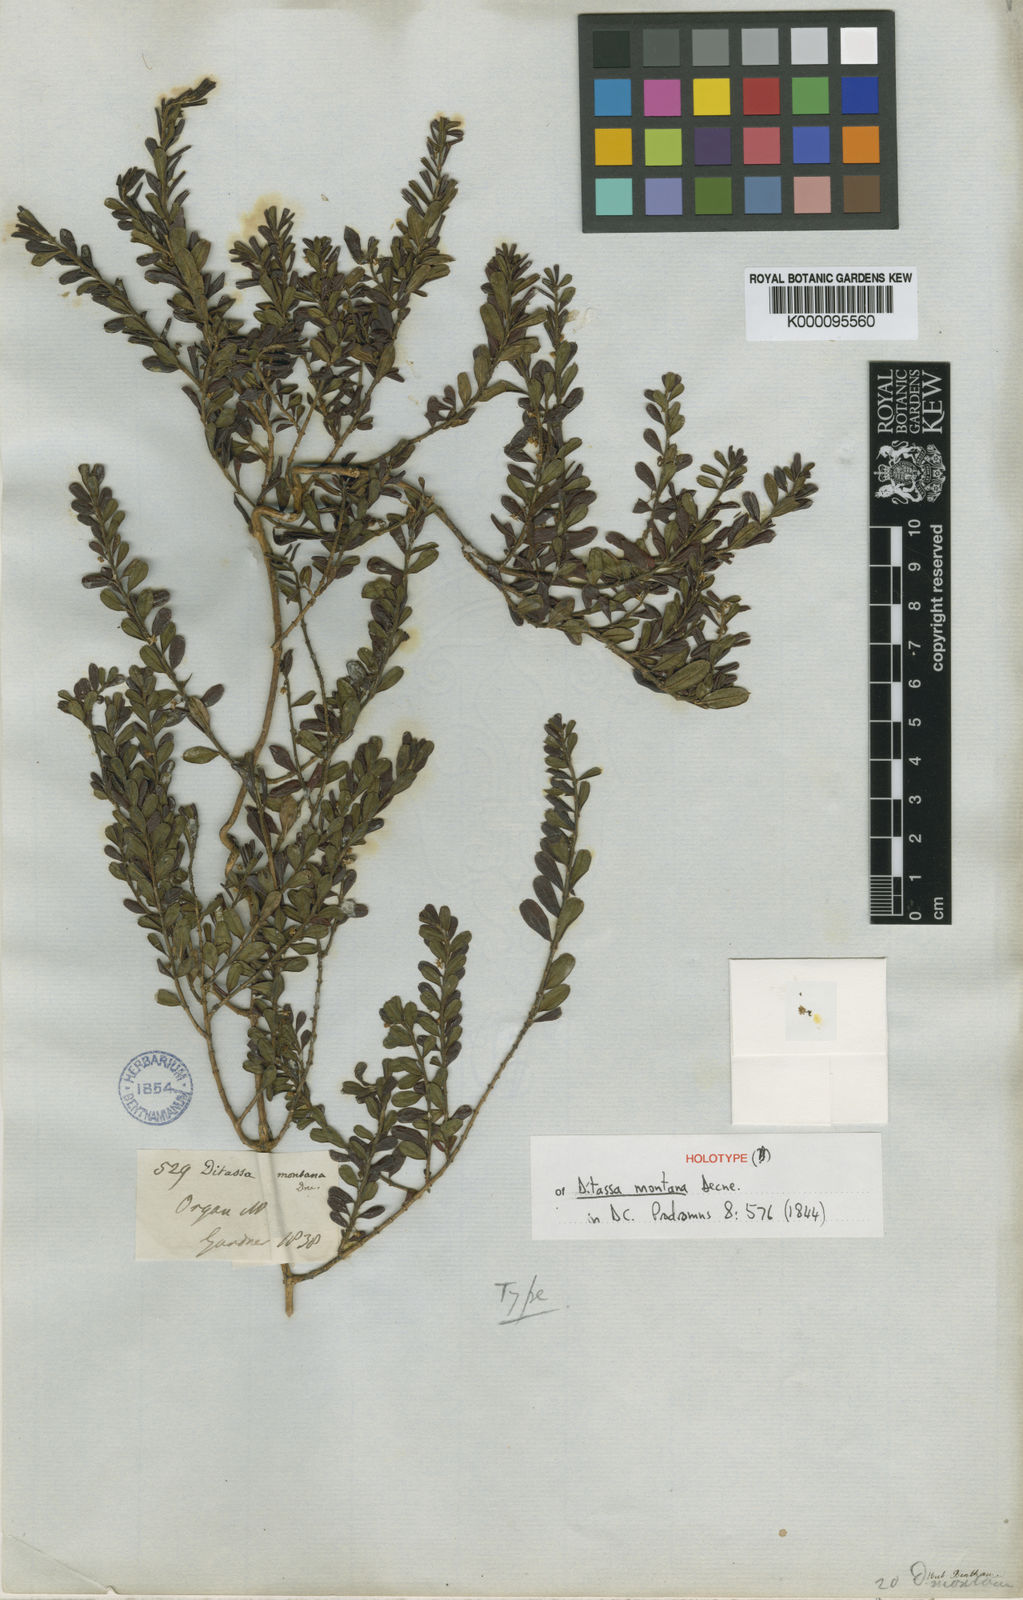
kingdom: Plantae
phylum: Tracheophyta
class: Magnoliopsida
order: Gentianales
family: Apocynaceae
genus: Ditassa
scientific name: Ditassa mucronata
